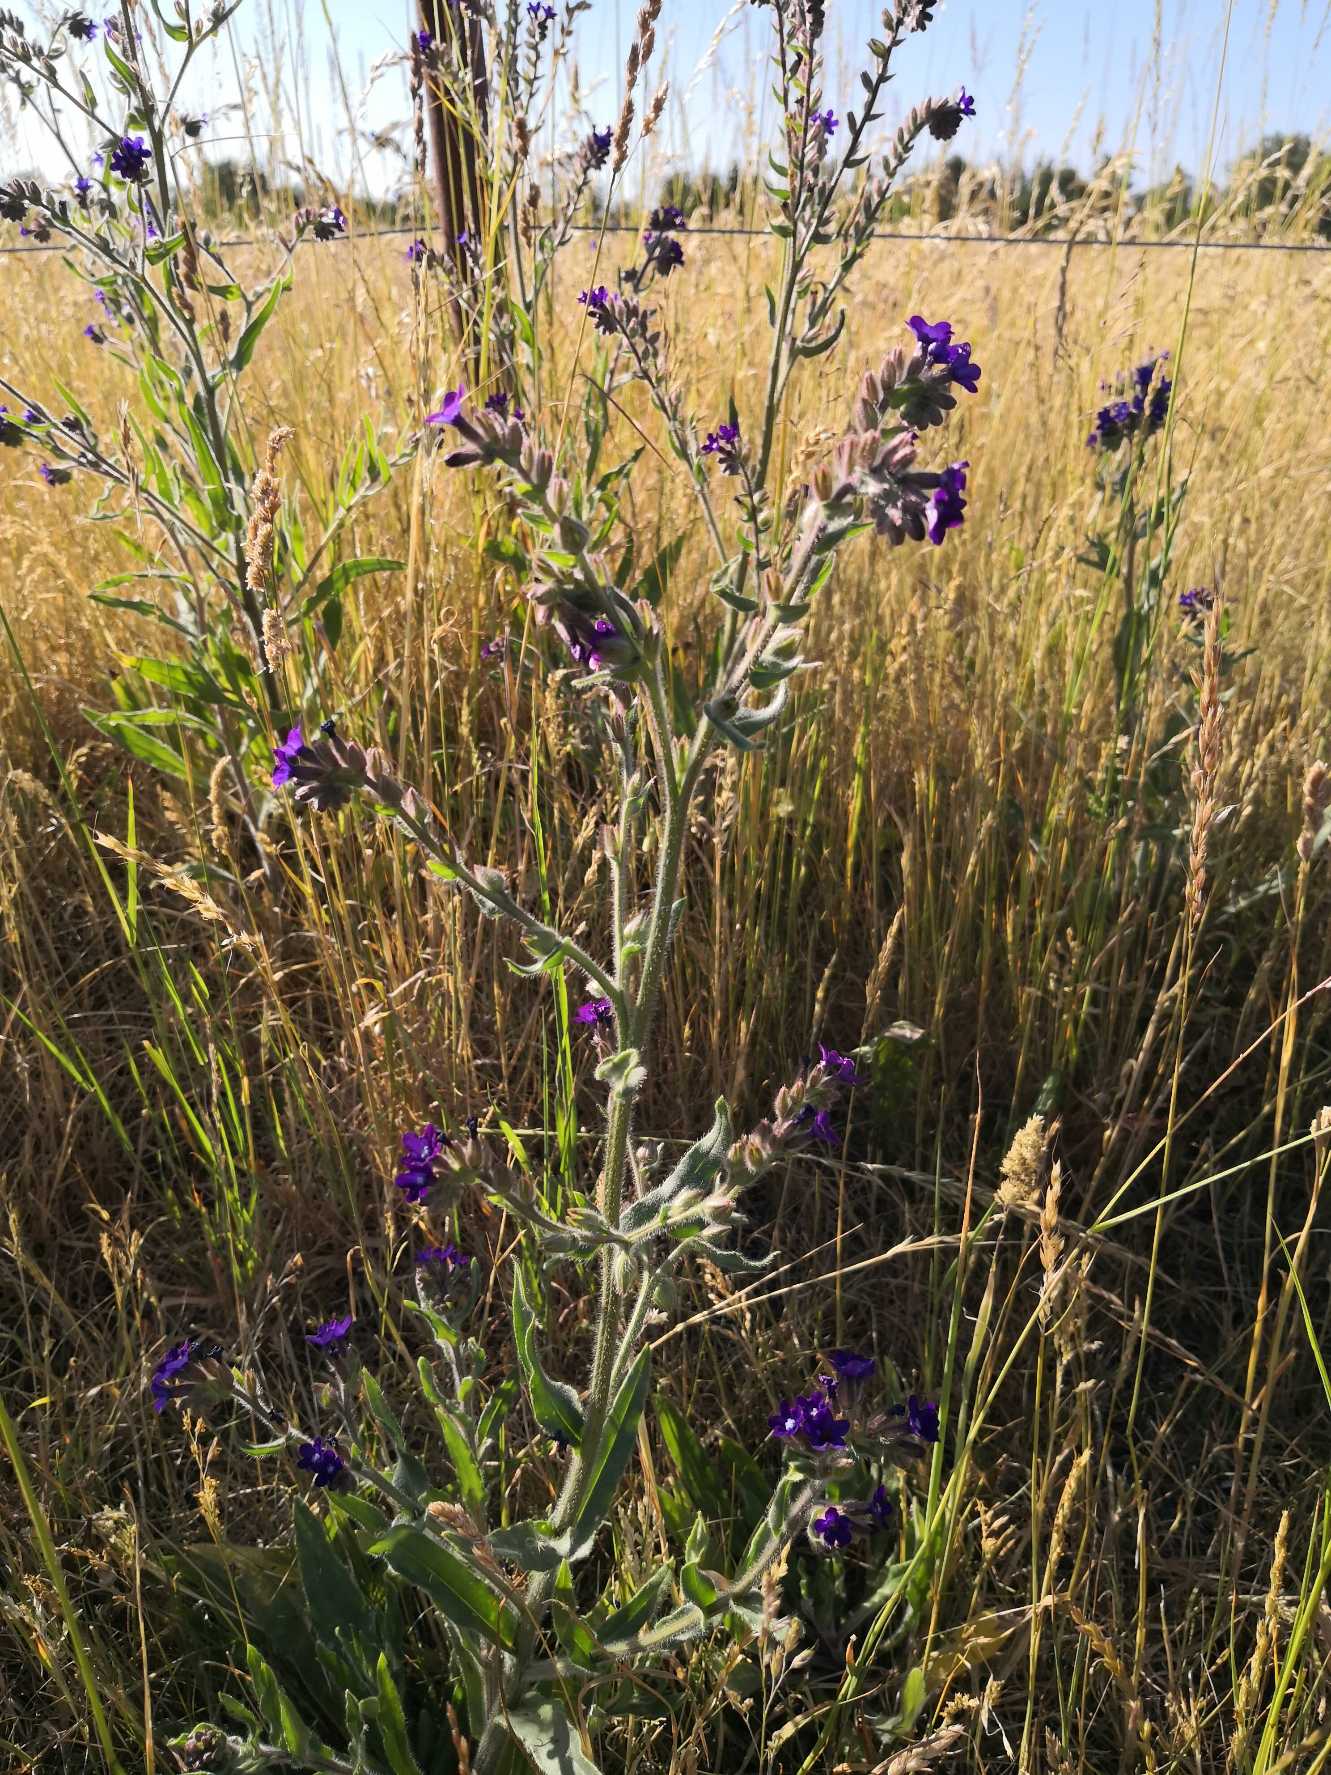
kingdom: Plantae
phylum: Tracheophyta
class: Magnoliopsida
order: Boraginales
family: Boraginaceae
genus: Anchusa
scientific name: Anchusa officinalis
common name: Læge-oksetunge
